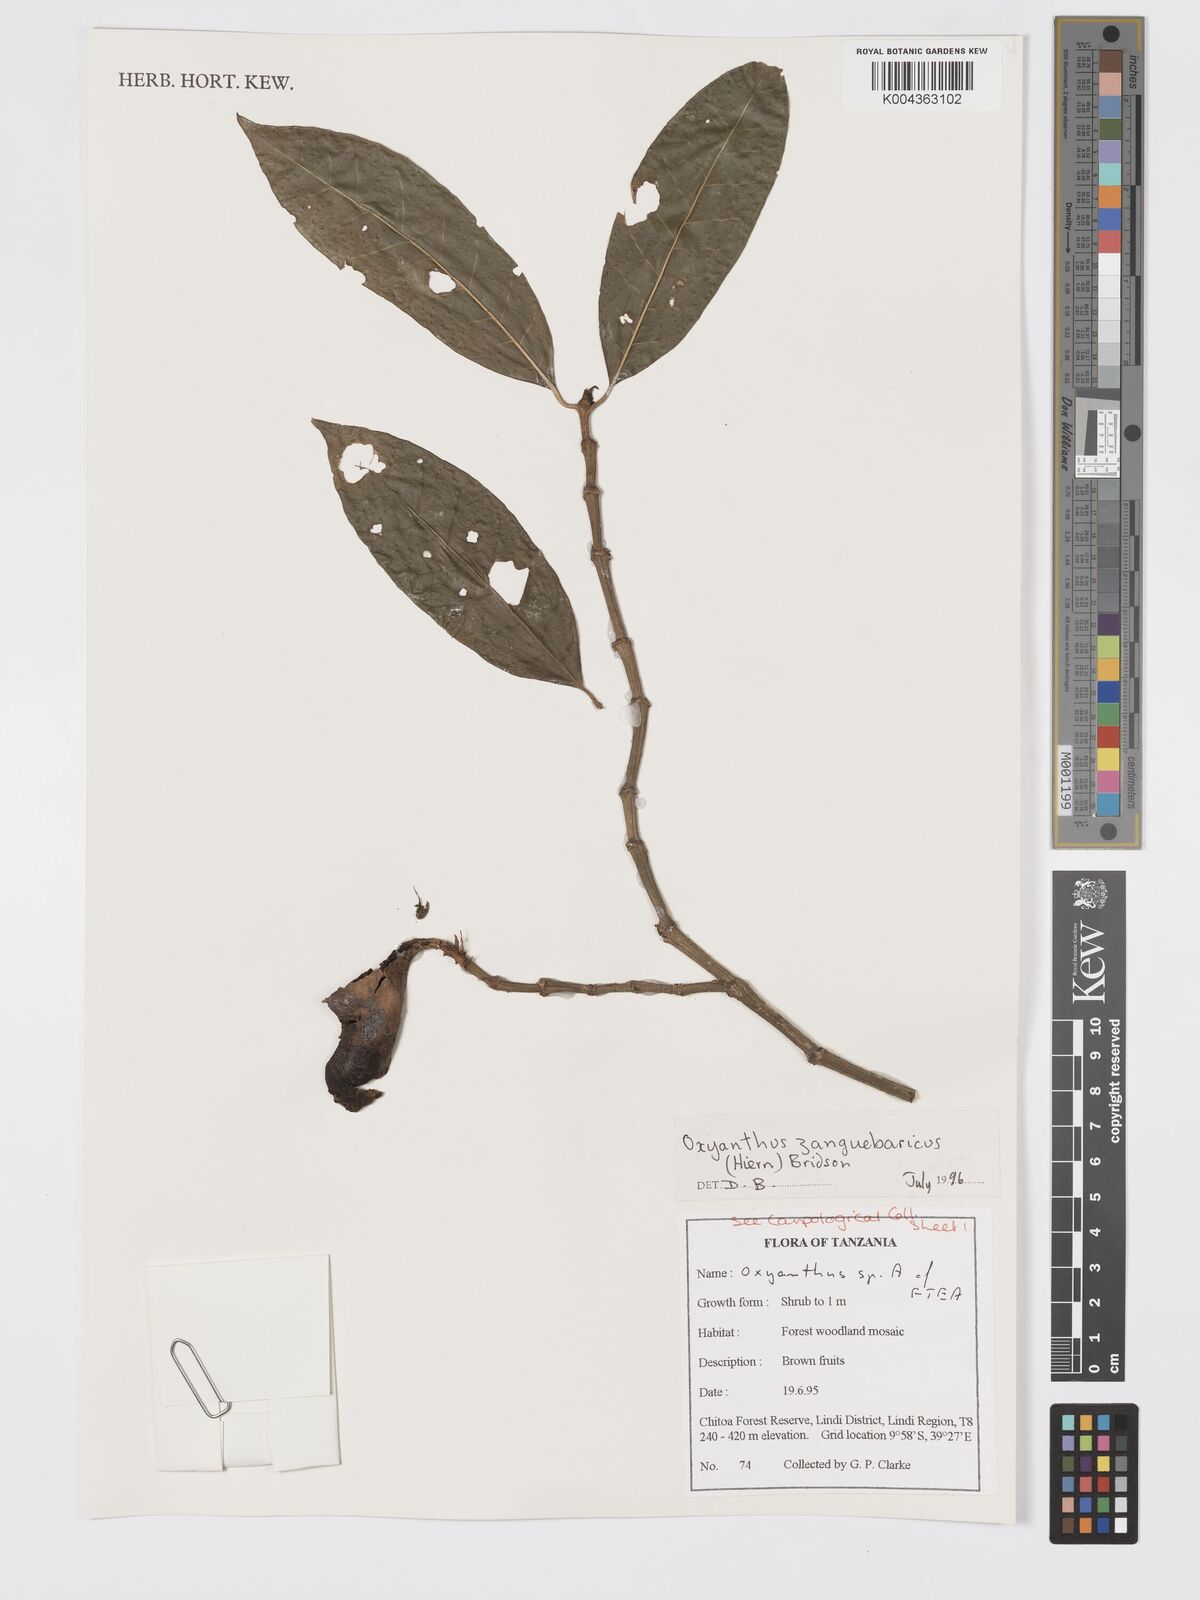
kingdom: Plantae
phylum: Tracheophyta
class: Magnoliopsida
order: Gentianales
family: Rubiaceae
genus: Oxyanthus
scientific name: Oxyanthus zanguebaricus
